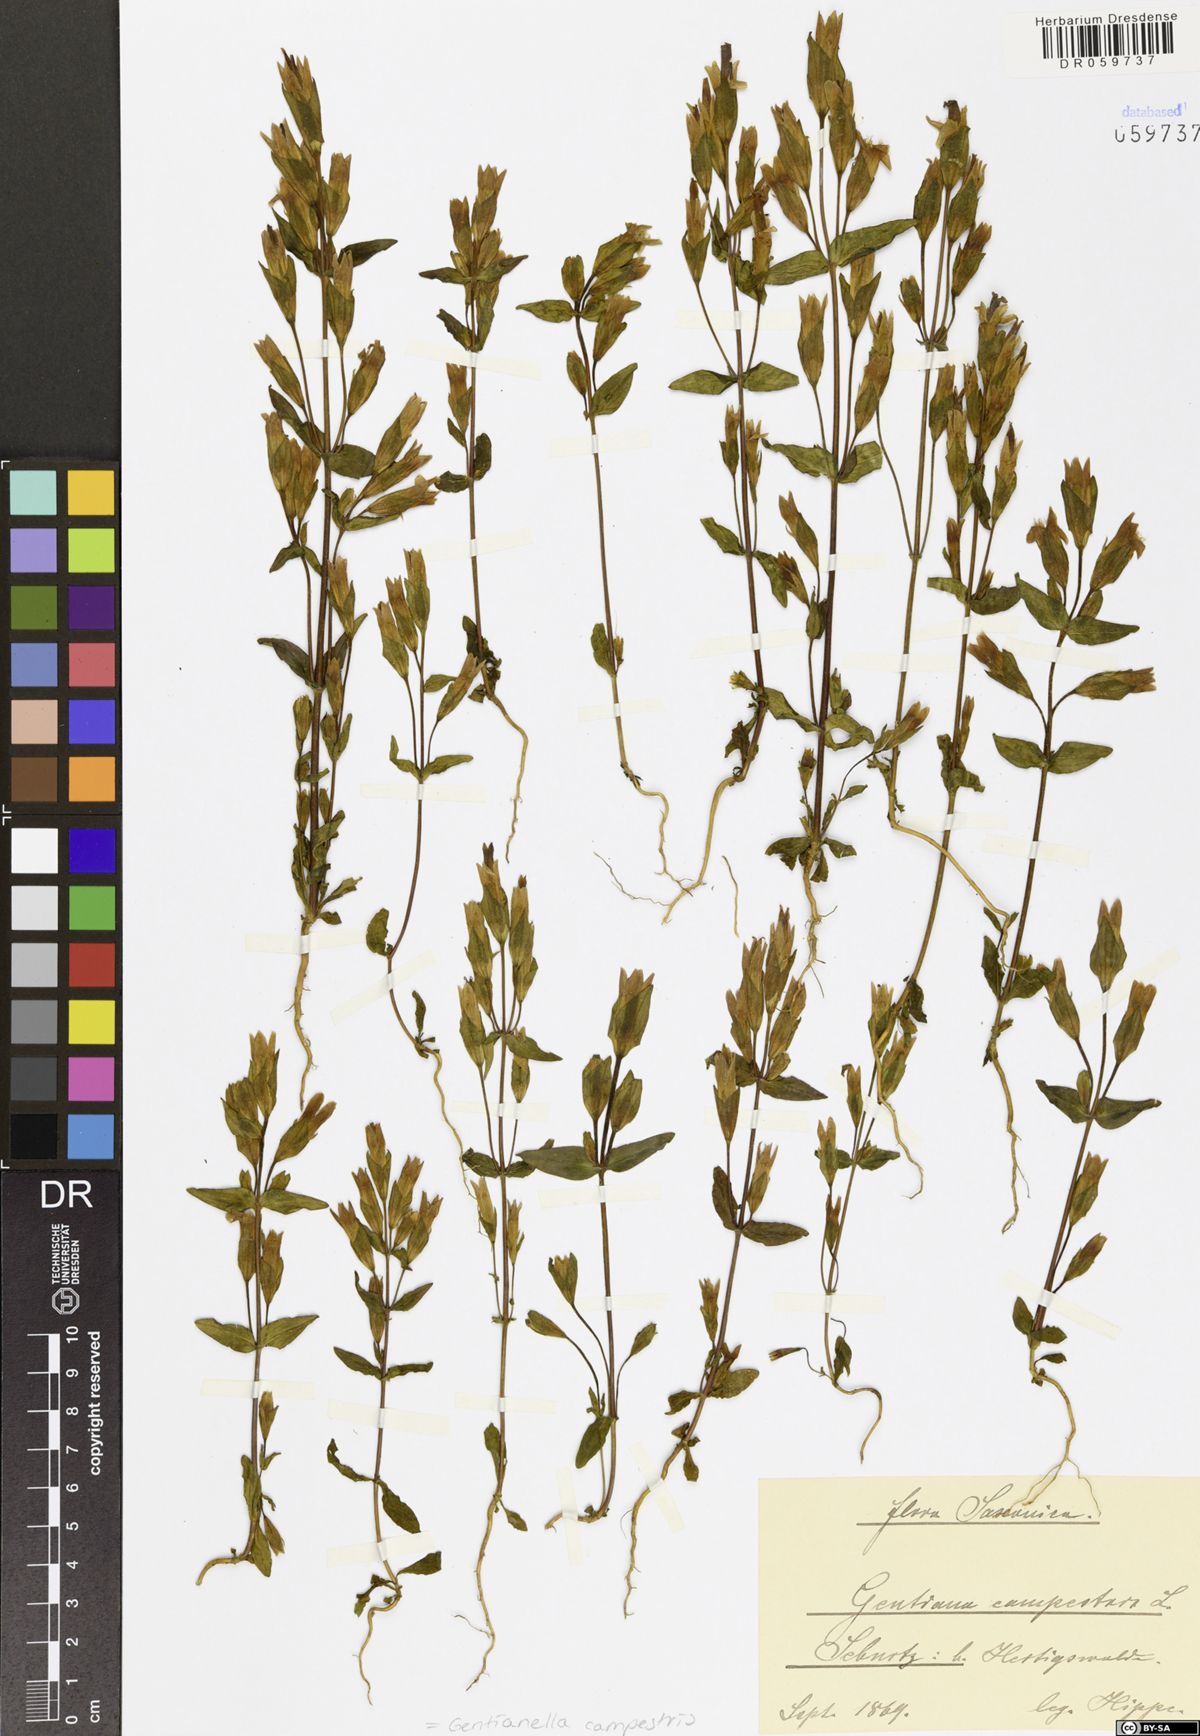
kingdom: Plantae
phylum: Tracheophyta
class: Magnoliopsida
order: Gentianales
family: Gentianaceae
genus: Gentianella
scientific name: Gentianella campestris
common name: Field gentian
